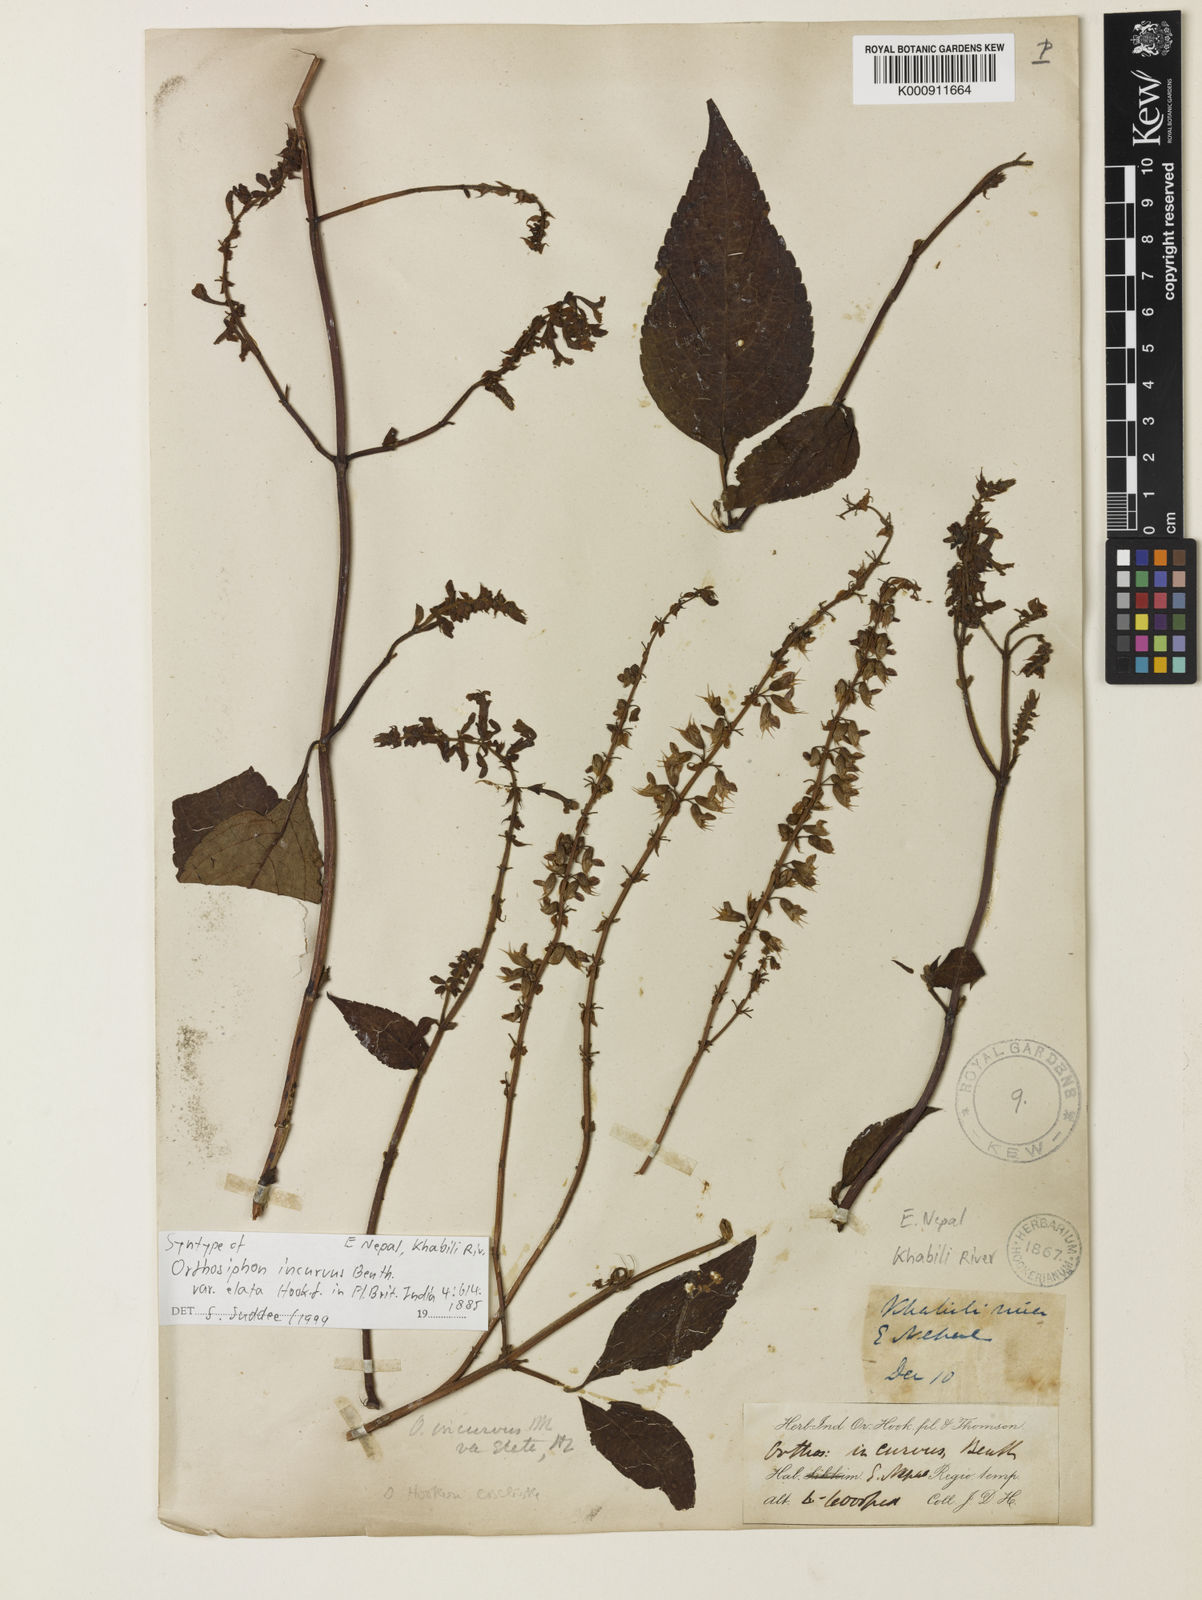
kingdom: Plantae
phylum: Tracheophyta
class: Magnoliopsida
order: Lamiales
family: Lamiaceae
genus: Orthosiphon
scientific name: Orthosiphon incurvus
